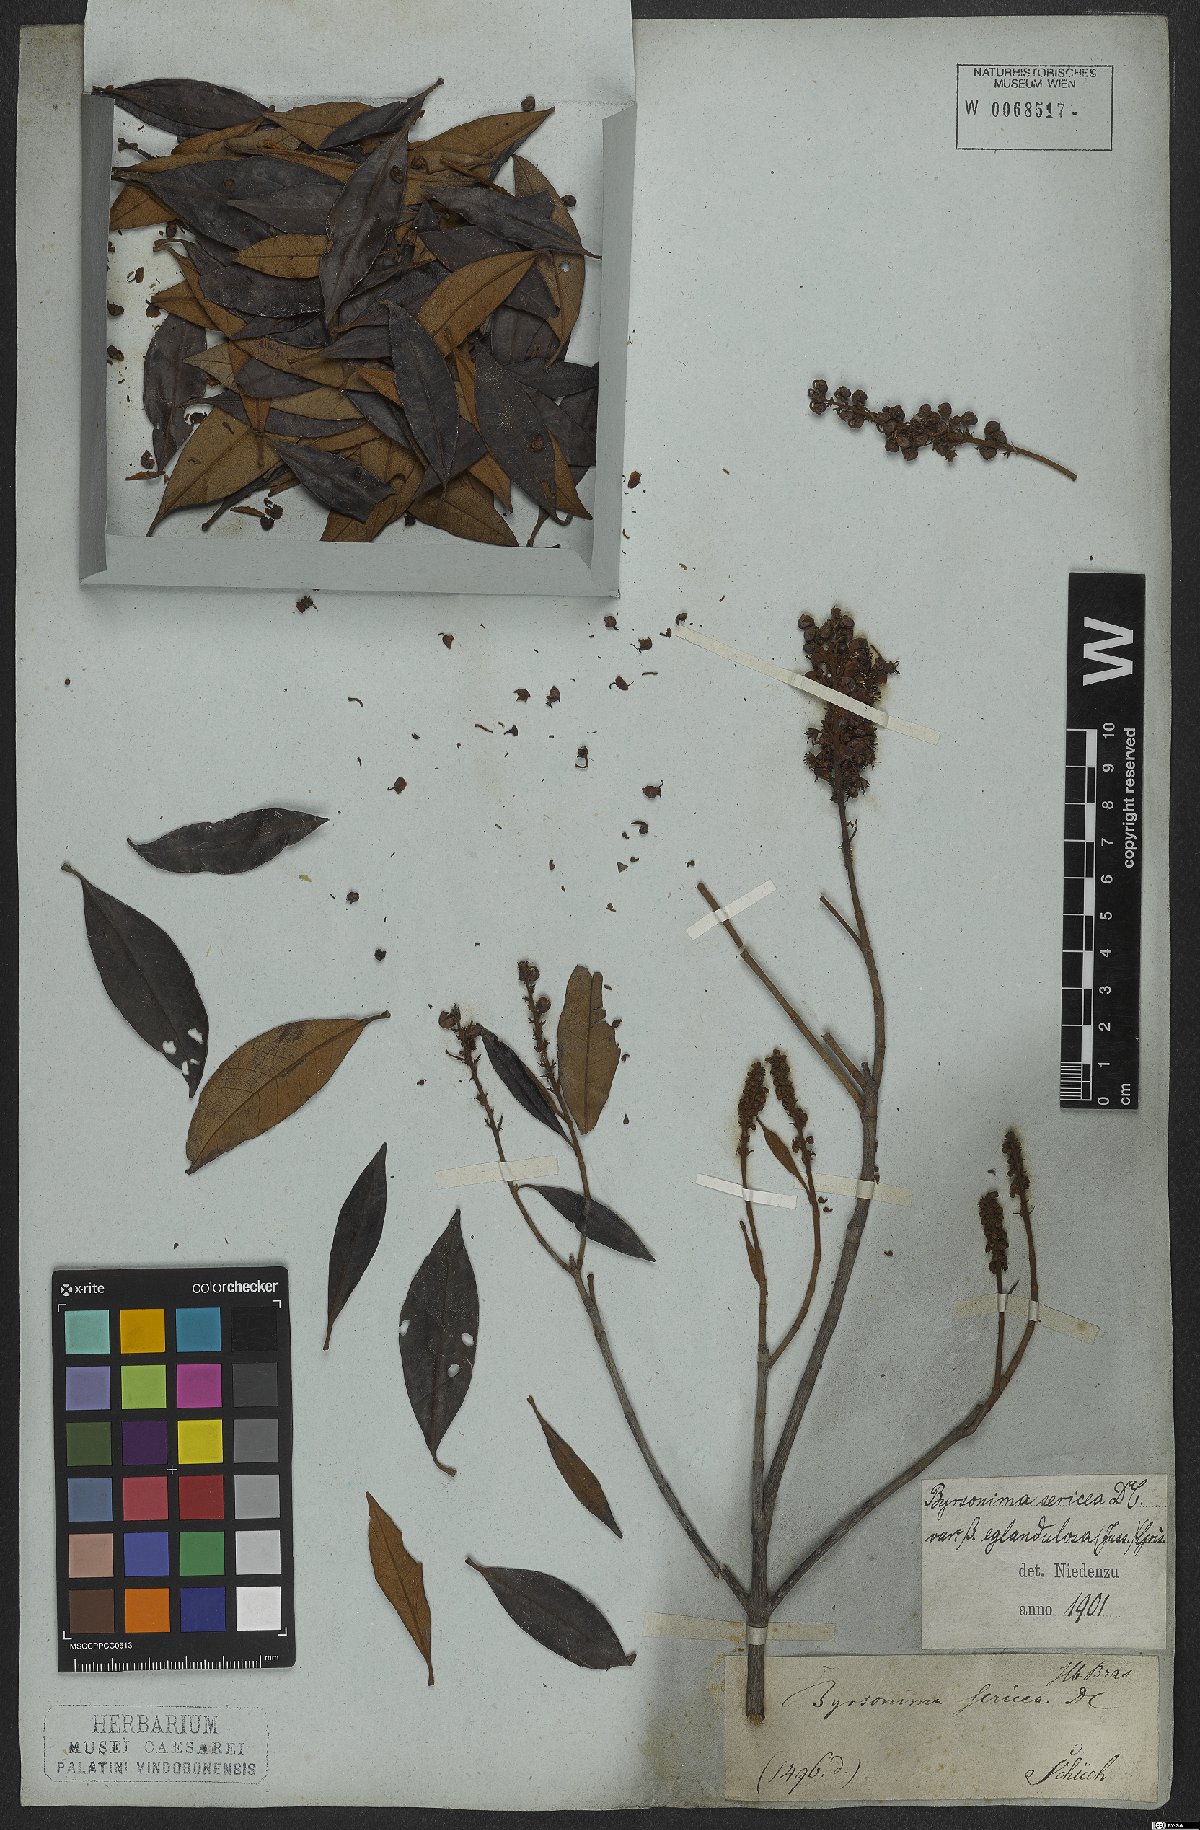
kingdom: Plantae
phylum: Tracheophyta
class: Magnoliopsida
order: Malpighiales
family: Malpighiaceae
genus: Byrsonima
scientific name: Byrsonima sericea
